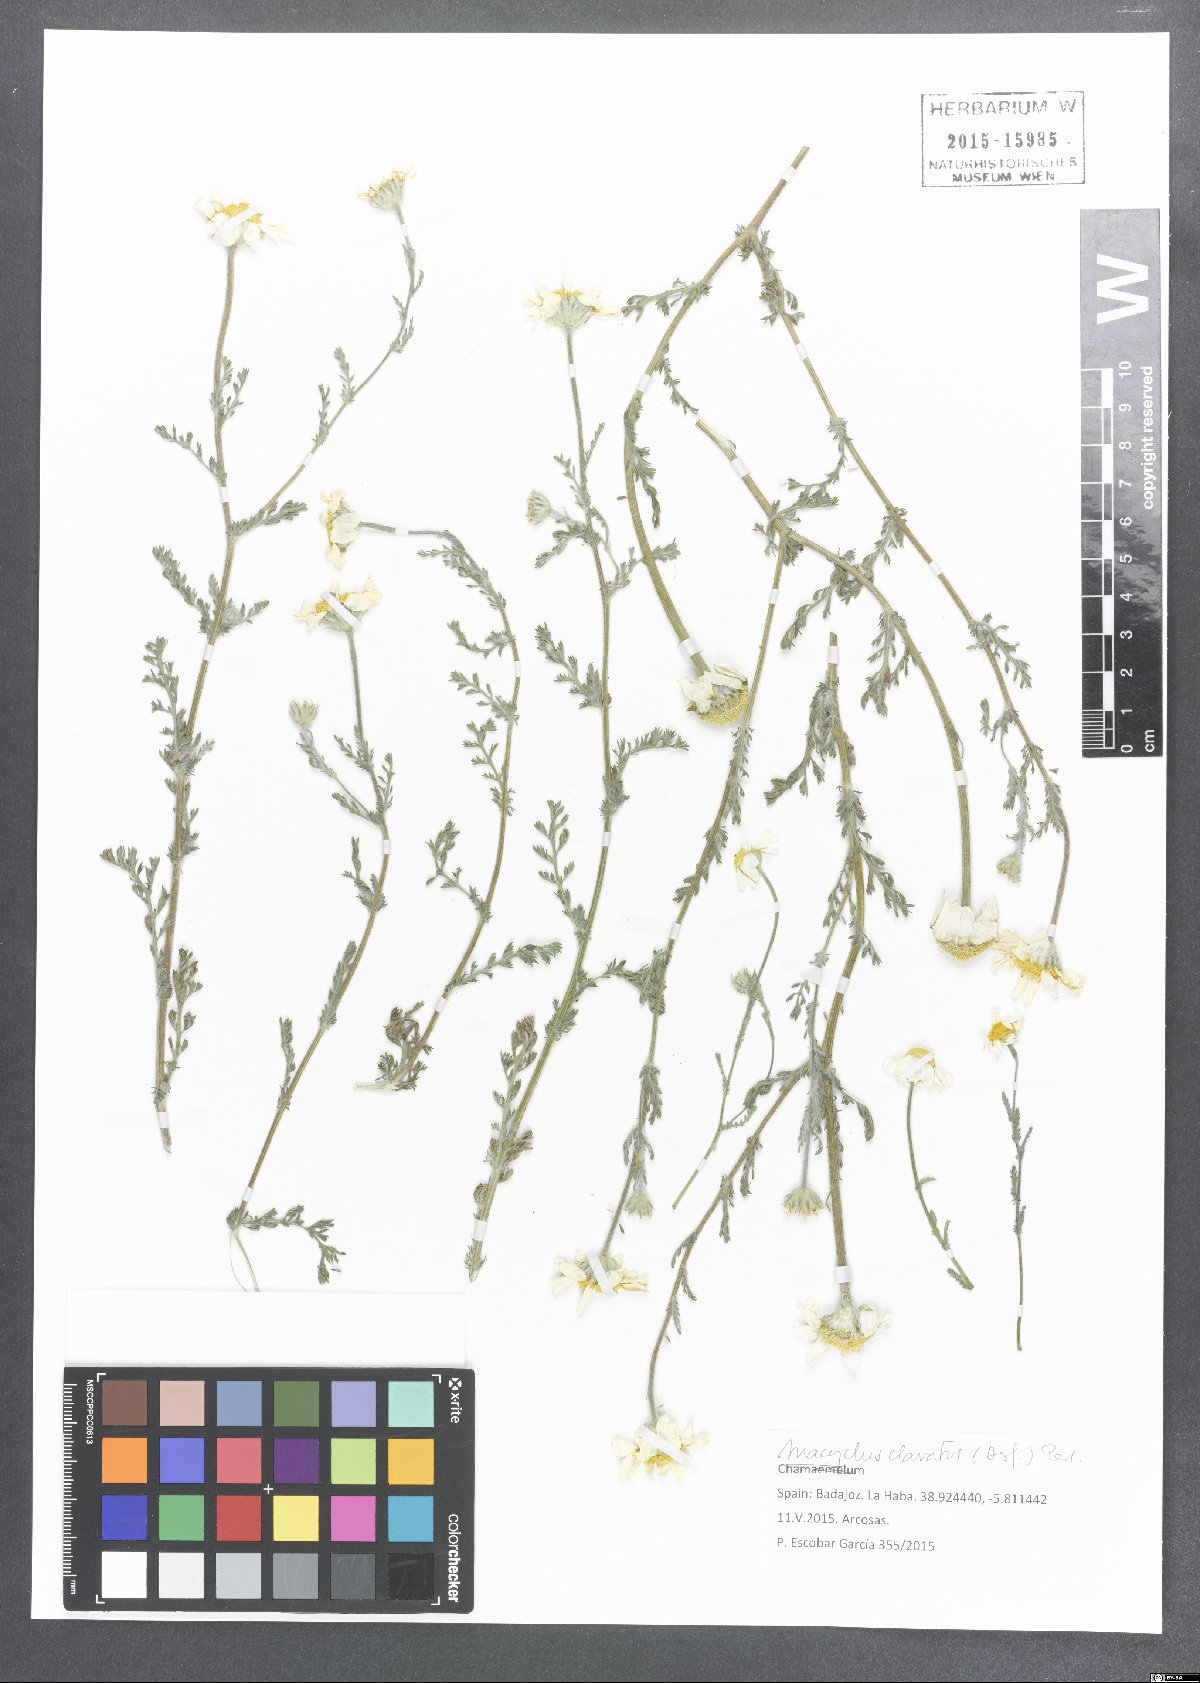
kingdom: Plantae
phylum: Tracheophyta
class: Magnoliopsida
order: Asterales
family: Asteraceae
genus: Anacyclus
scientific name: Anacyclus clavatus
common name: Whitebuttons
